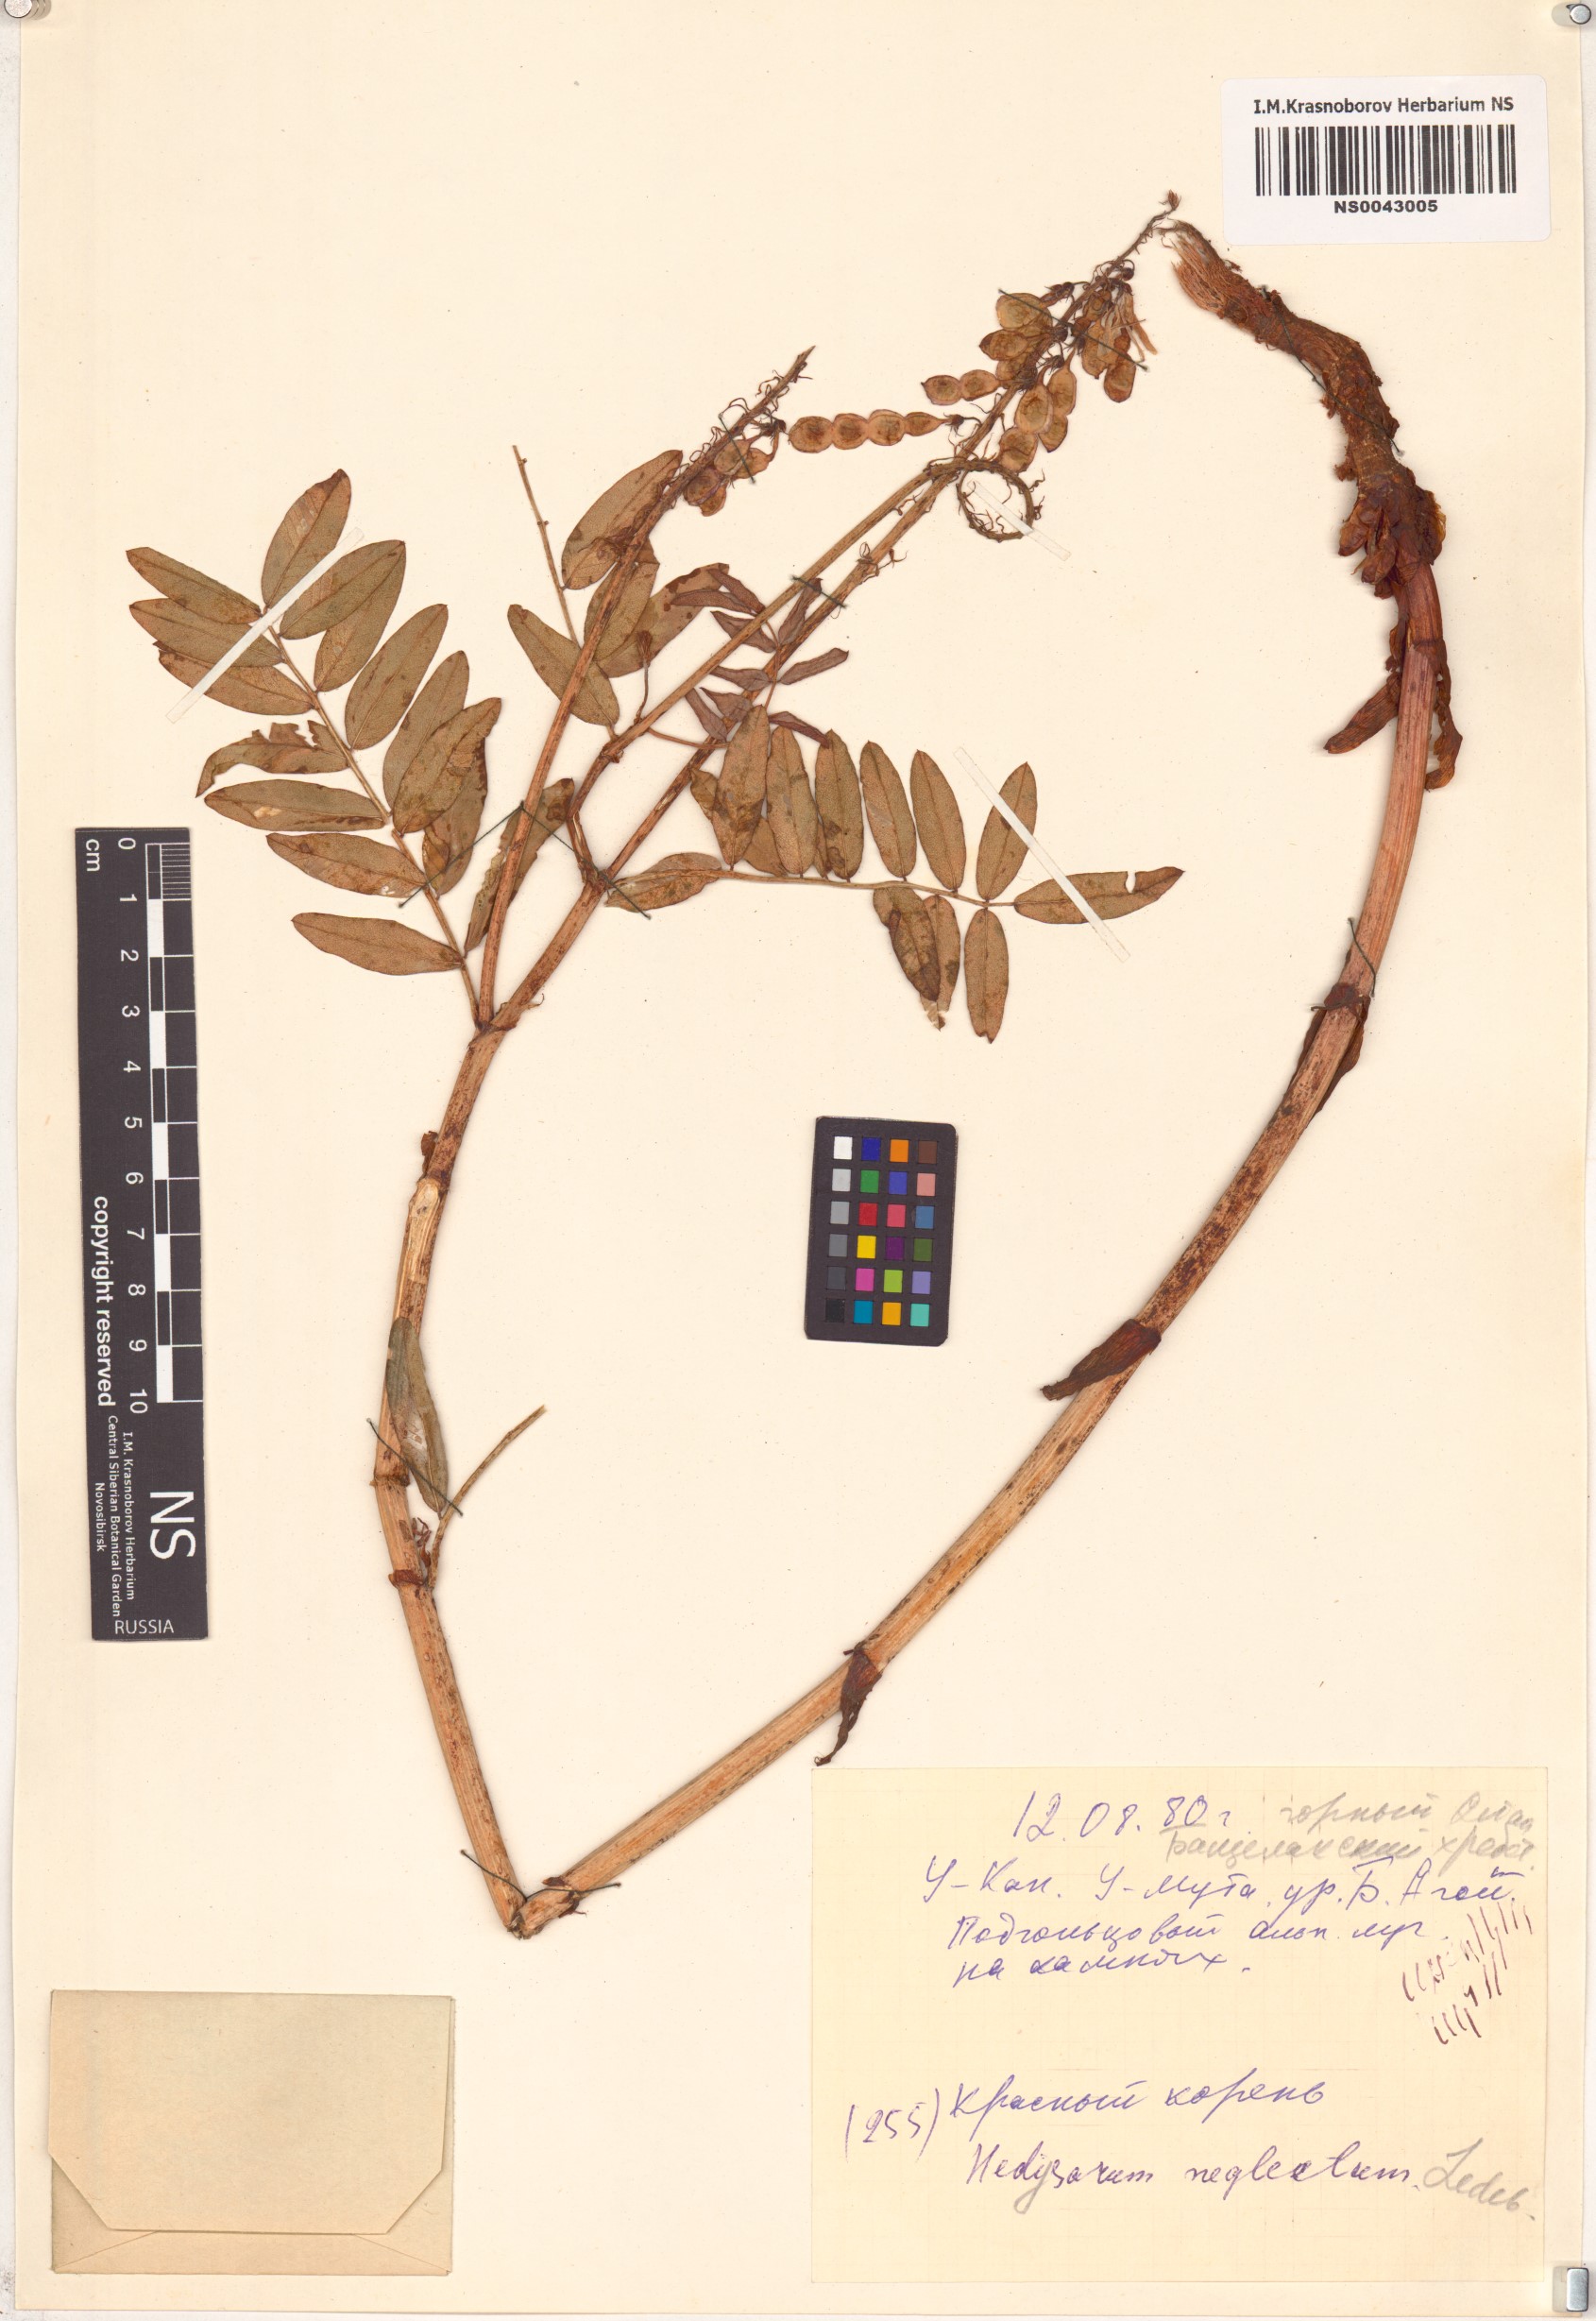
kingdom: Plantae
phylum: Tracheophyta
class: Magnoliopsida
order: Fabales
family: Fabaceae
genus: Hedysarum
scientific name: Hedysarum neglectum
